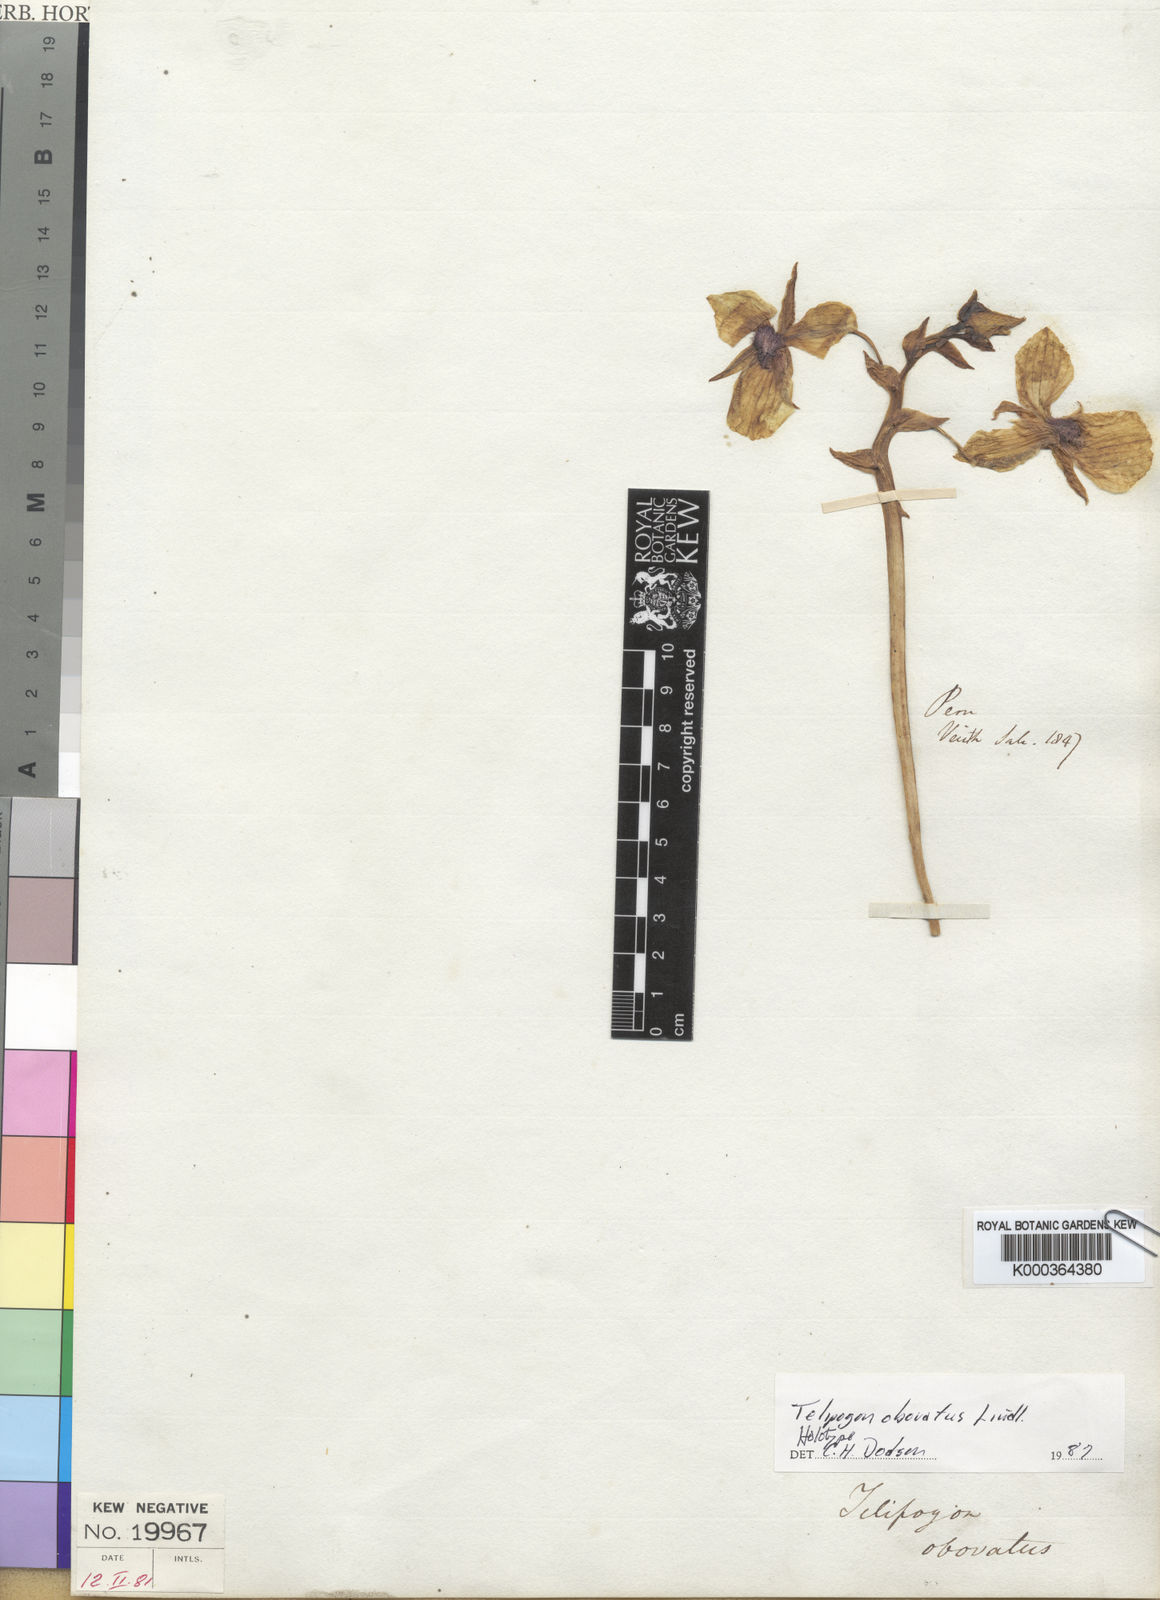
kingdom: Plantae
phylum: Tracheophyta
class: Liliopsida
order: Asparagales
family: Orchidaceae
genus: Telipogon
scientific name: Telipogon obovatus
